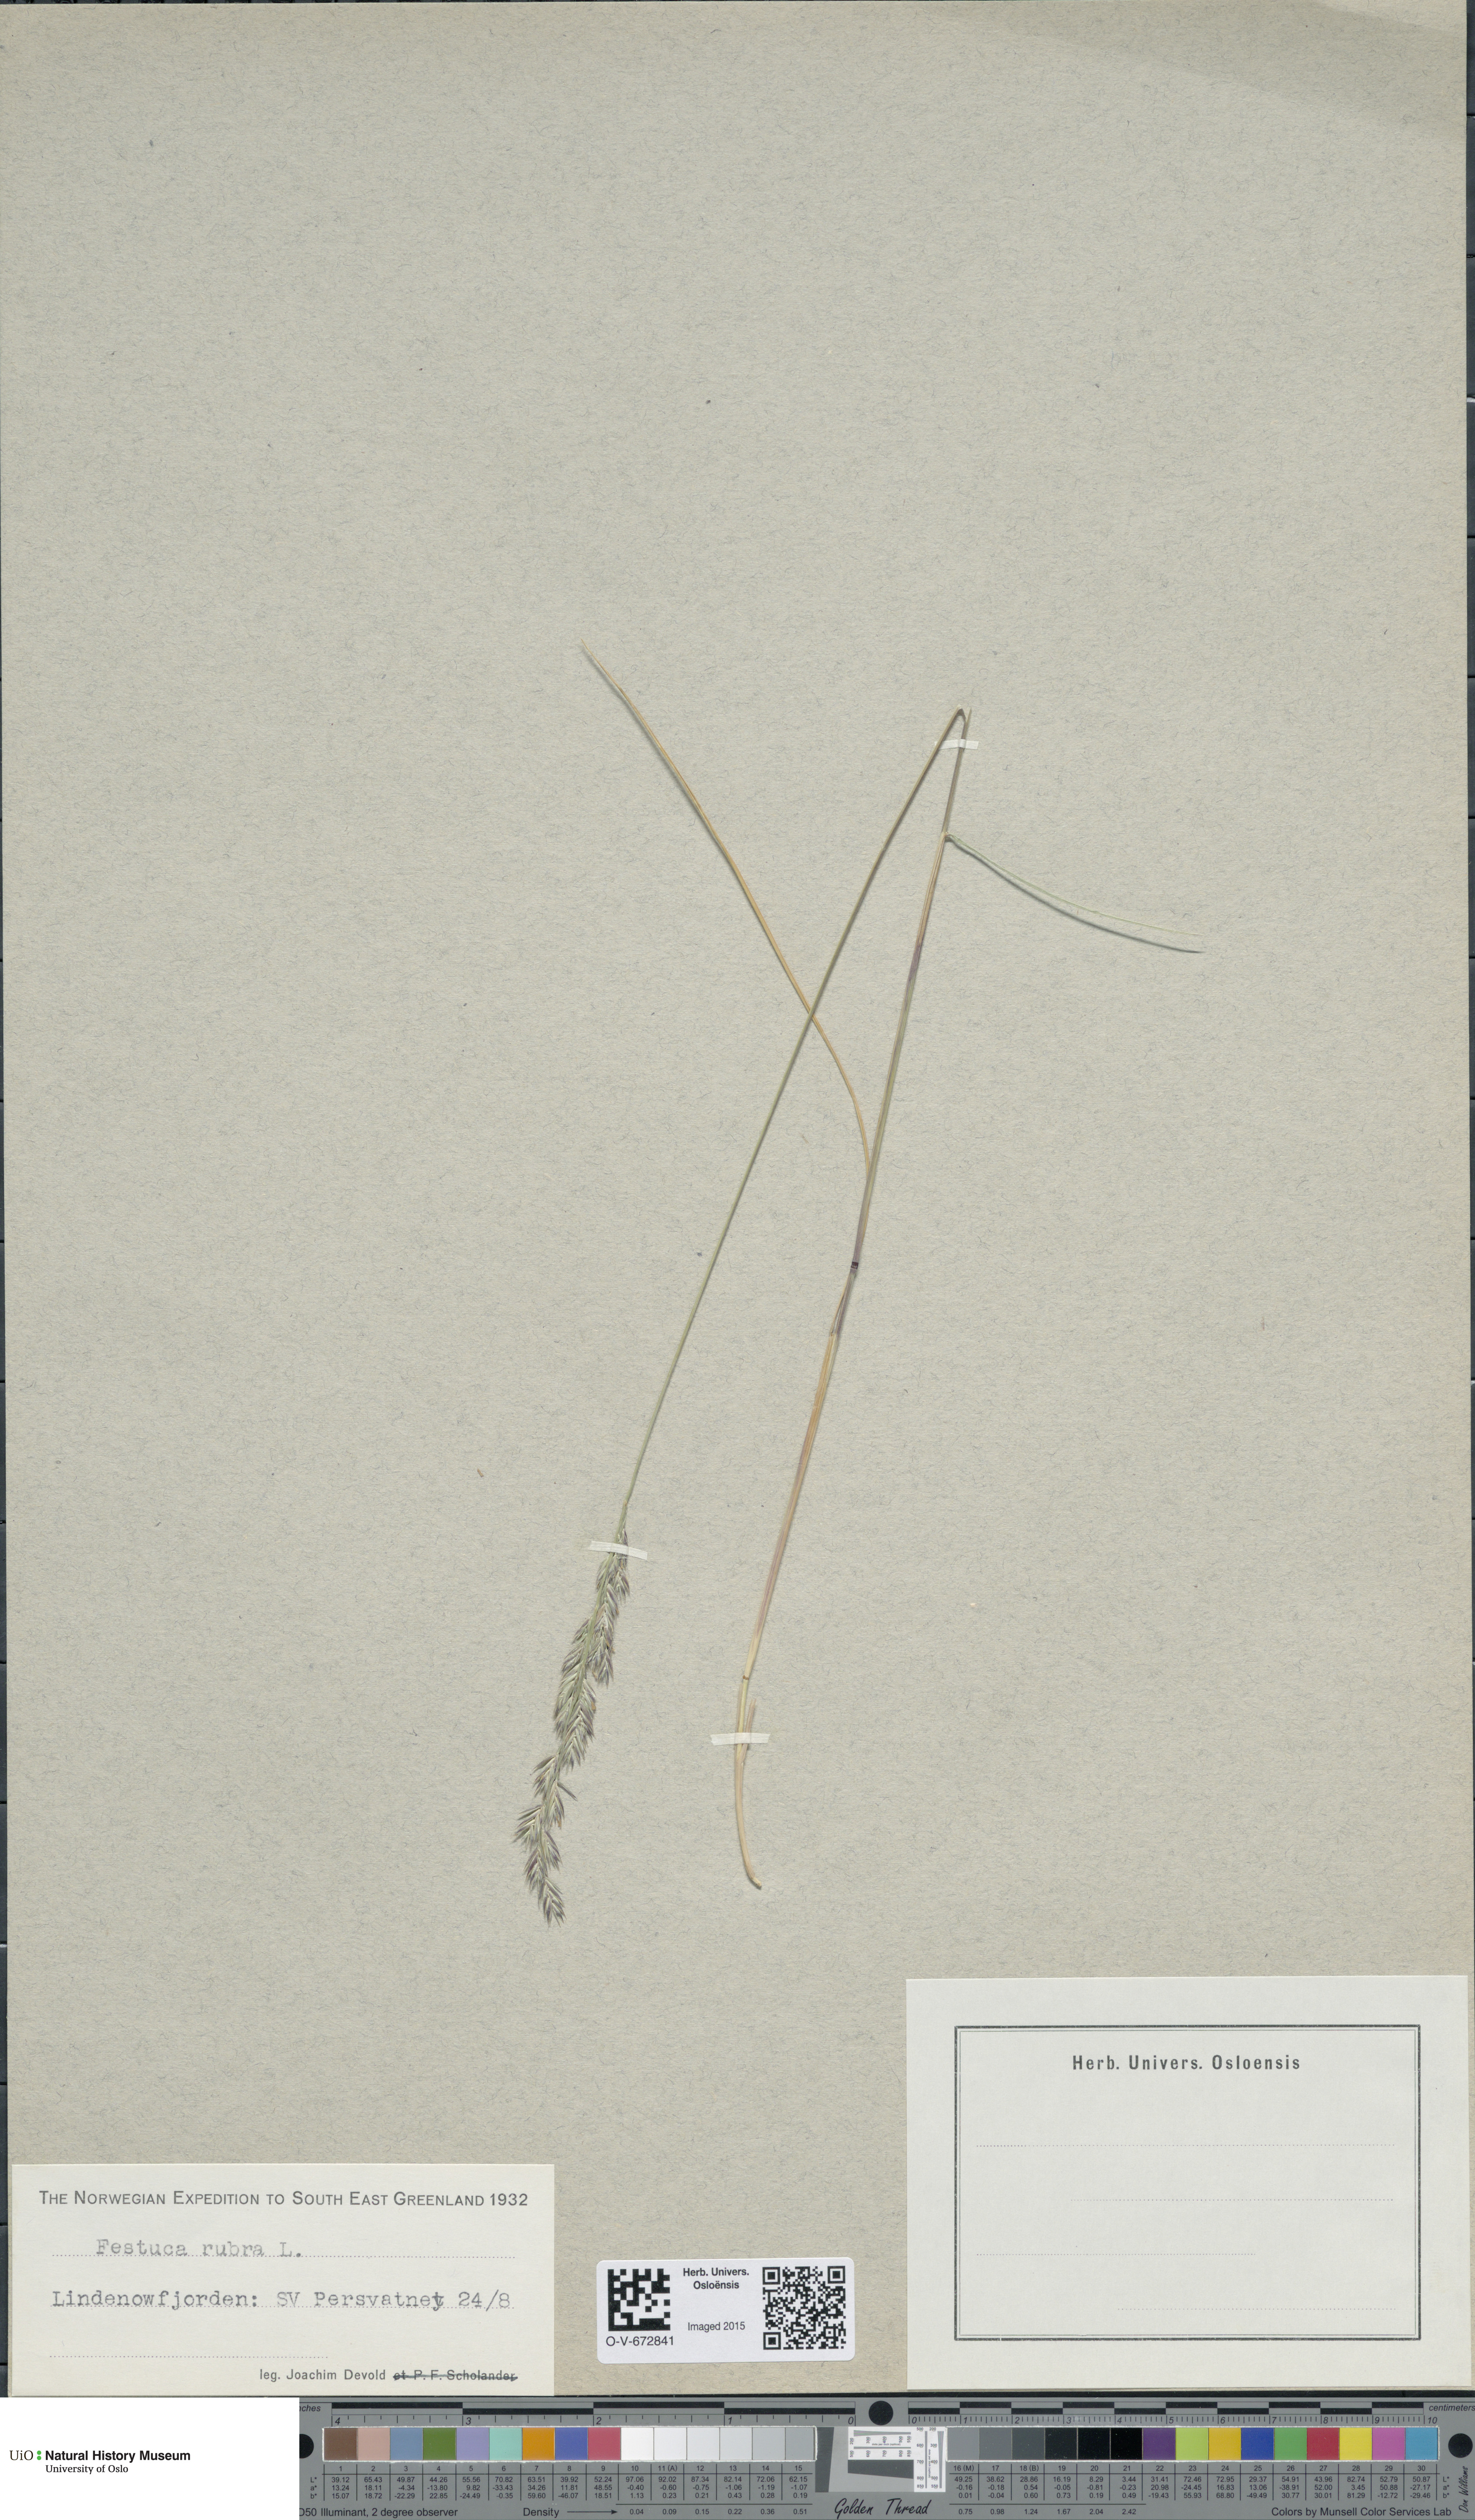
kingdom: Plantae
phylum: Tracheophyta
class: Liliopsida
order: Poales
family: Poaceae
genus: Festuca
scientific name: Festuca rubra
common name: Red fescue
